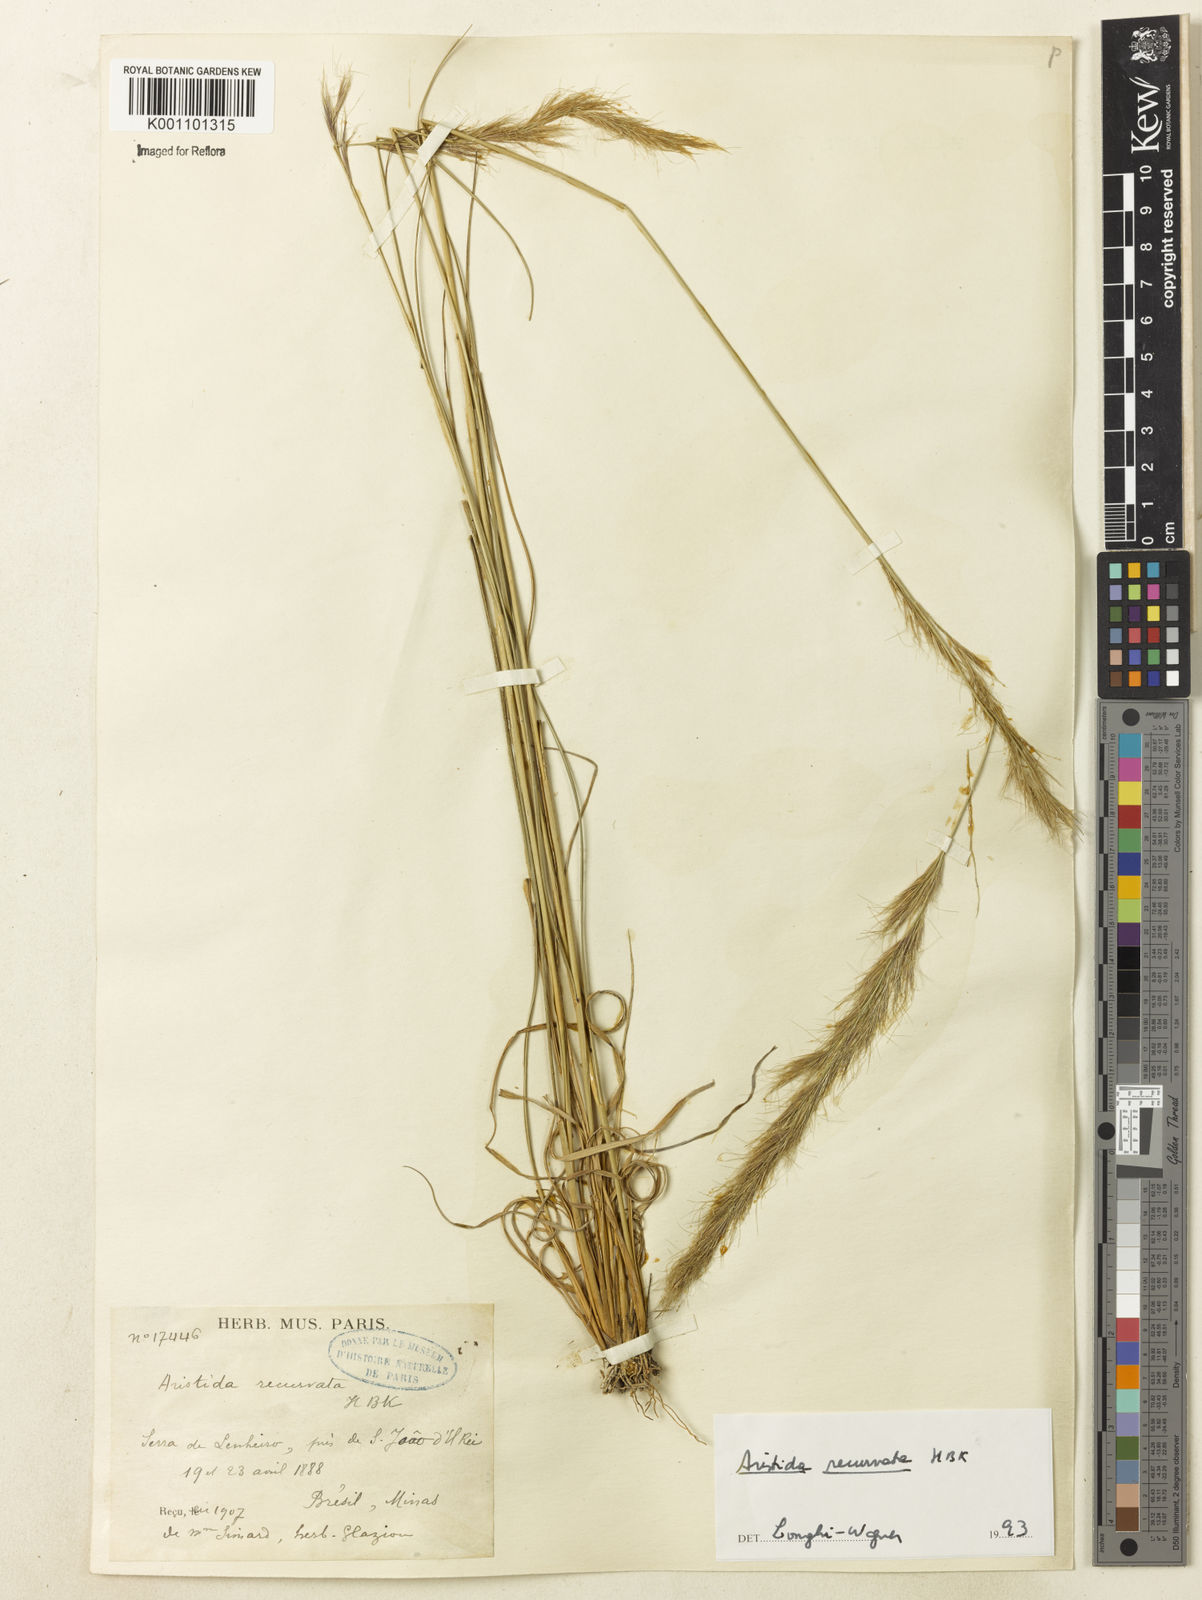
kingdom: Plantae
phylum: Tracheophyta
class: Liliopsida
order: Poales
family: Poaceae
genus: Aristida
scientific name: Aristida recurvata
